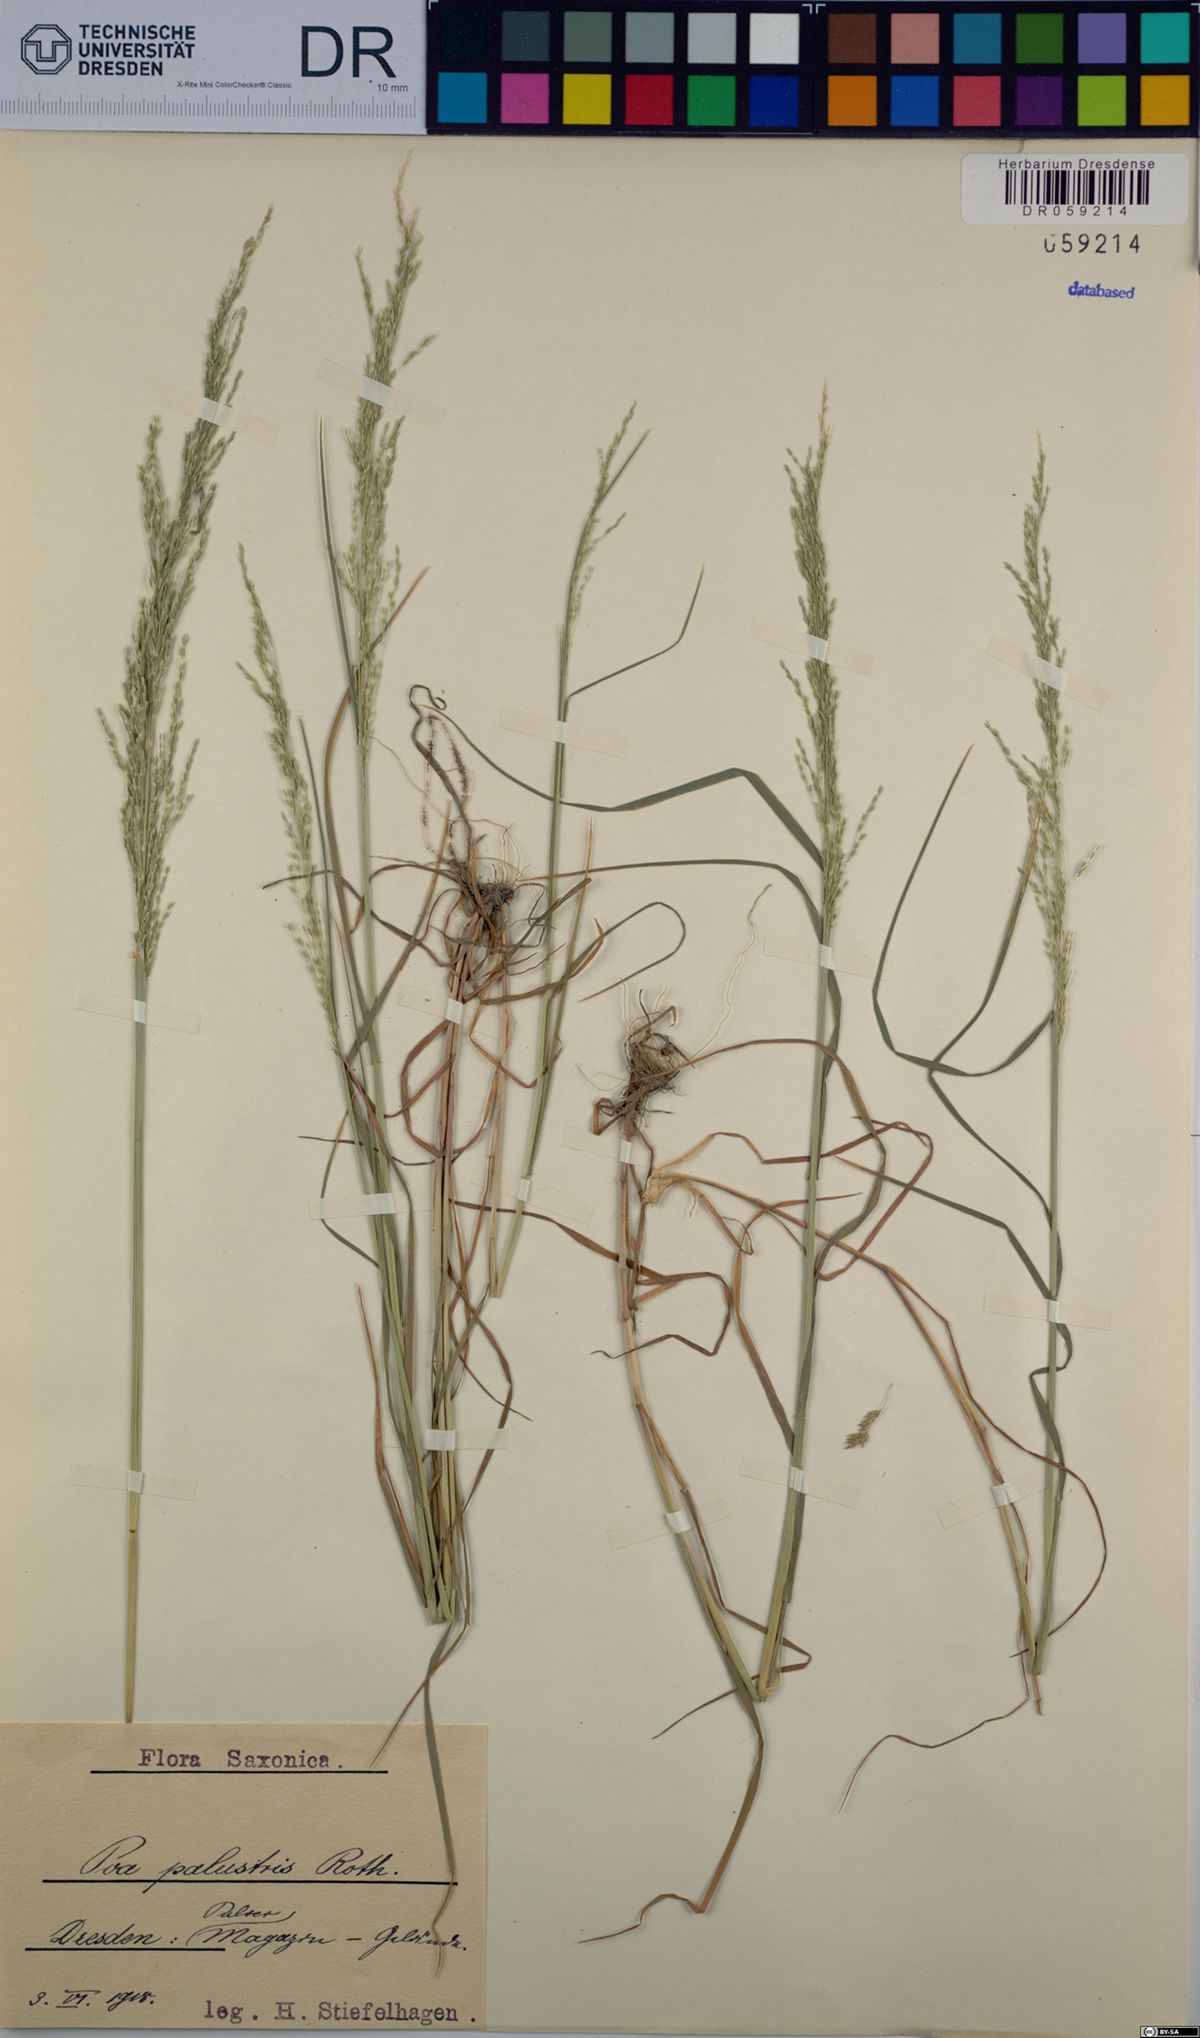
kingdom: Plantae
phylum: Tracheophyta
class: Liliopsida
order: Poales
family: Poaceae
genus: Poa
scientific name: Poa palustris
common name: Swamp meadow-grass
